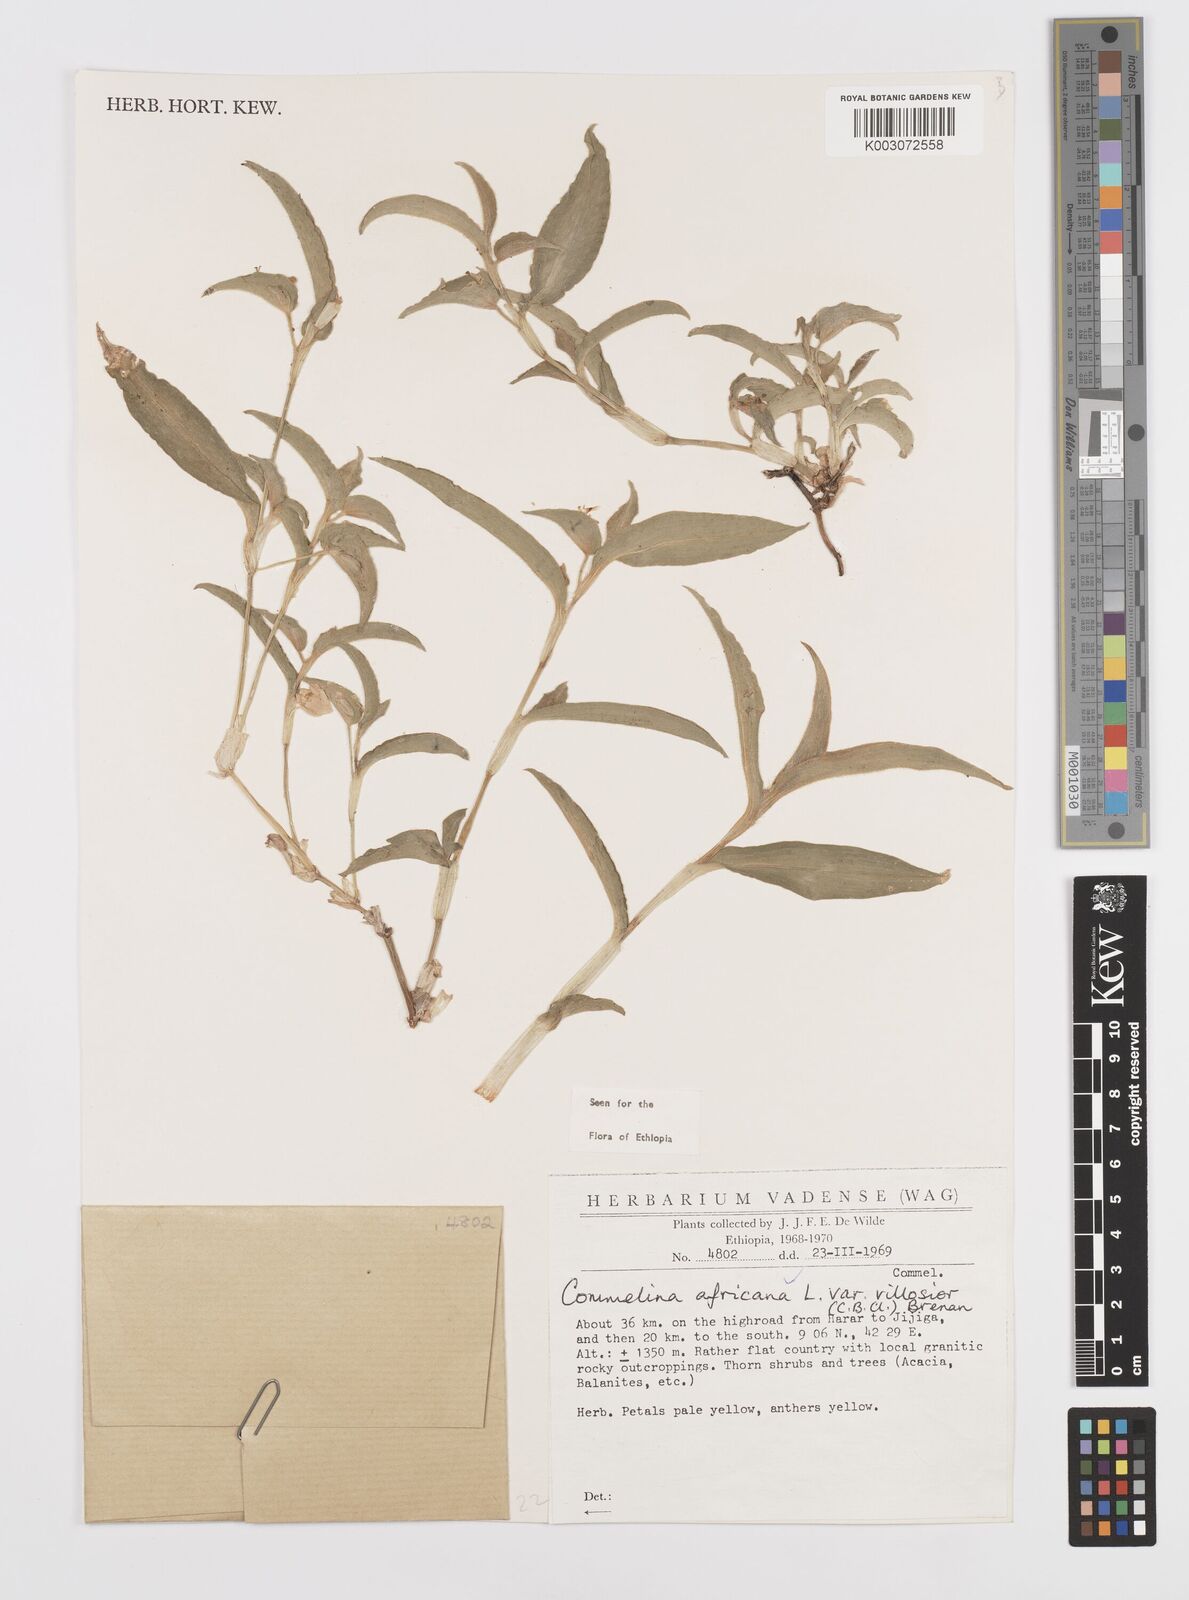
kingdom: Plantae
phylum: Tracheophyta
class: Liliopsida
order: Commelinales
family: Commelinaceae
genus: Commelina
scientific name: Commelina africana
